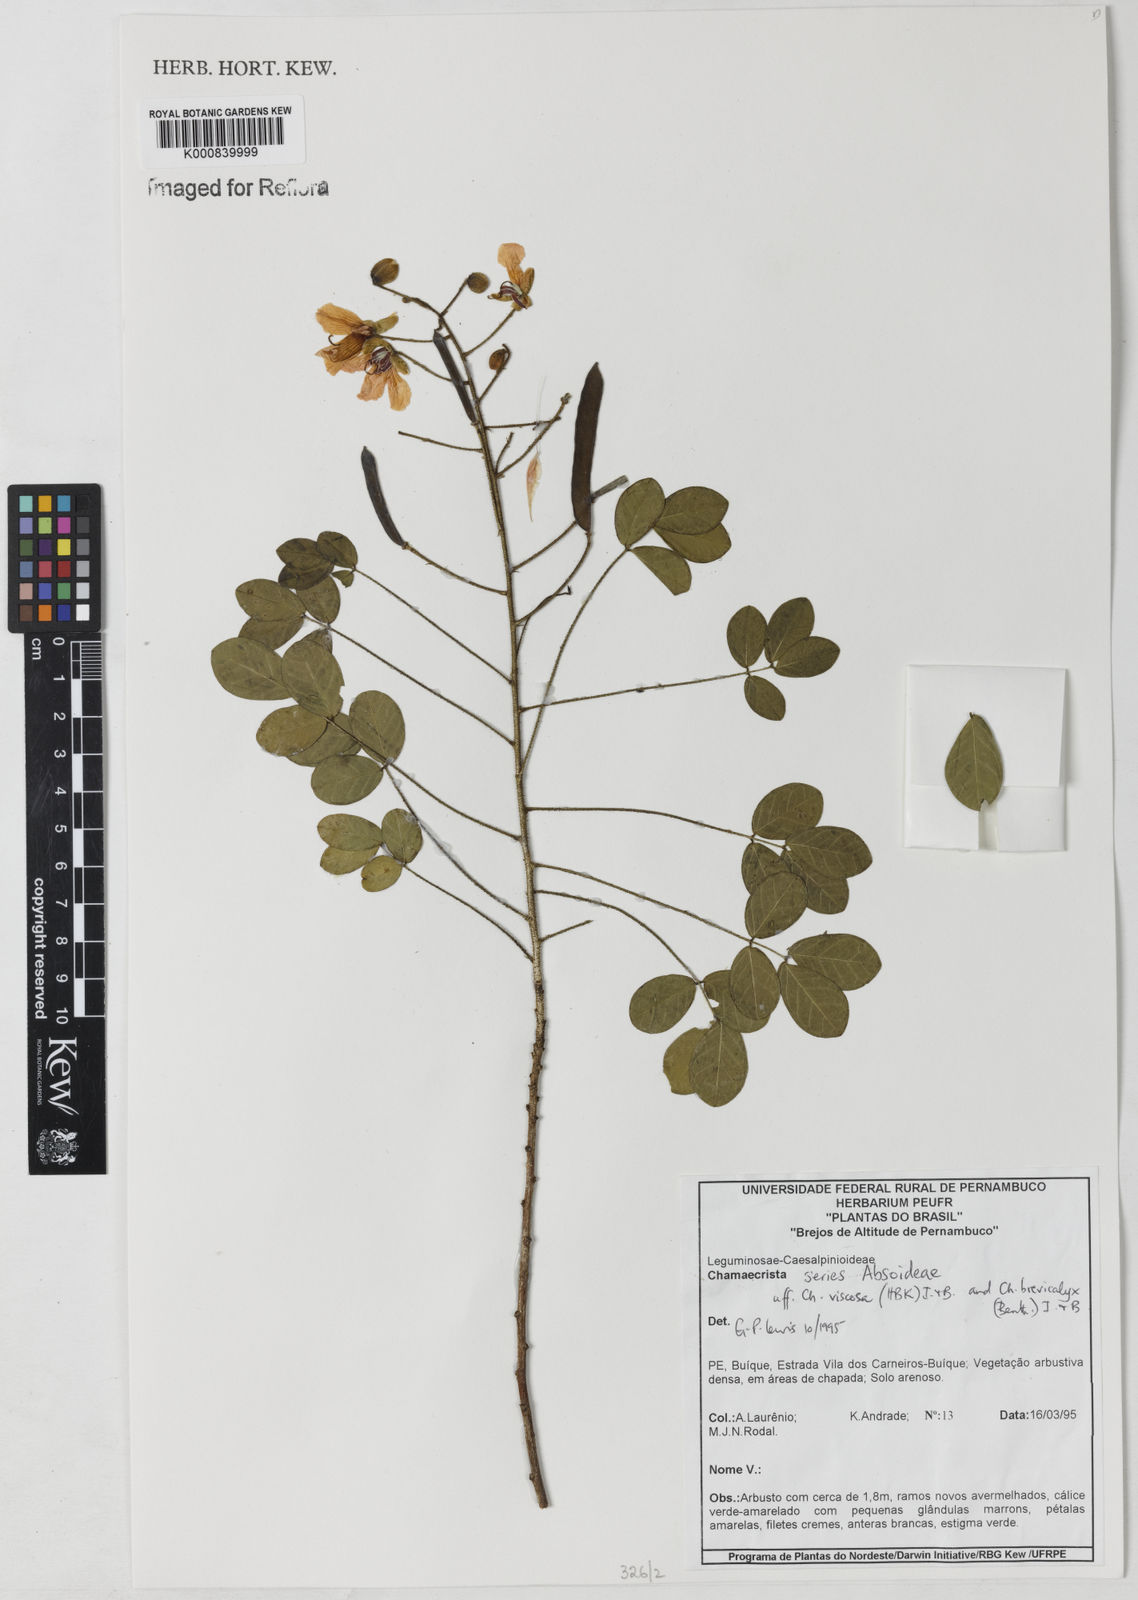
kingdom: Plantae
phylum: Tracheophyta
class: Magnoliopsida
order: Fabales
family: Fabaceae
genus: Chamaecrista
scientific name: Chamaecrista
